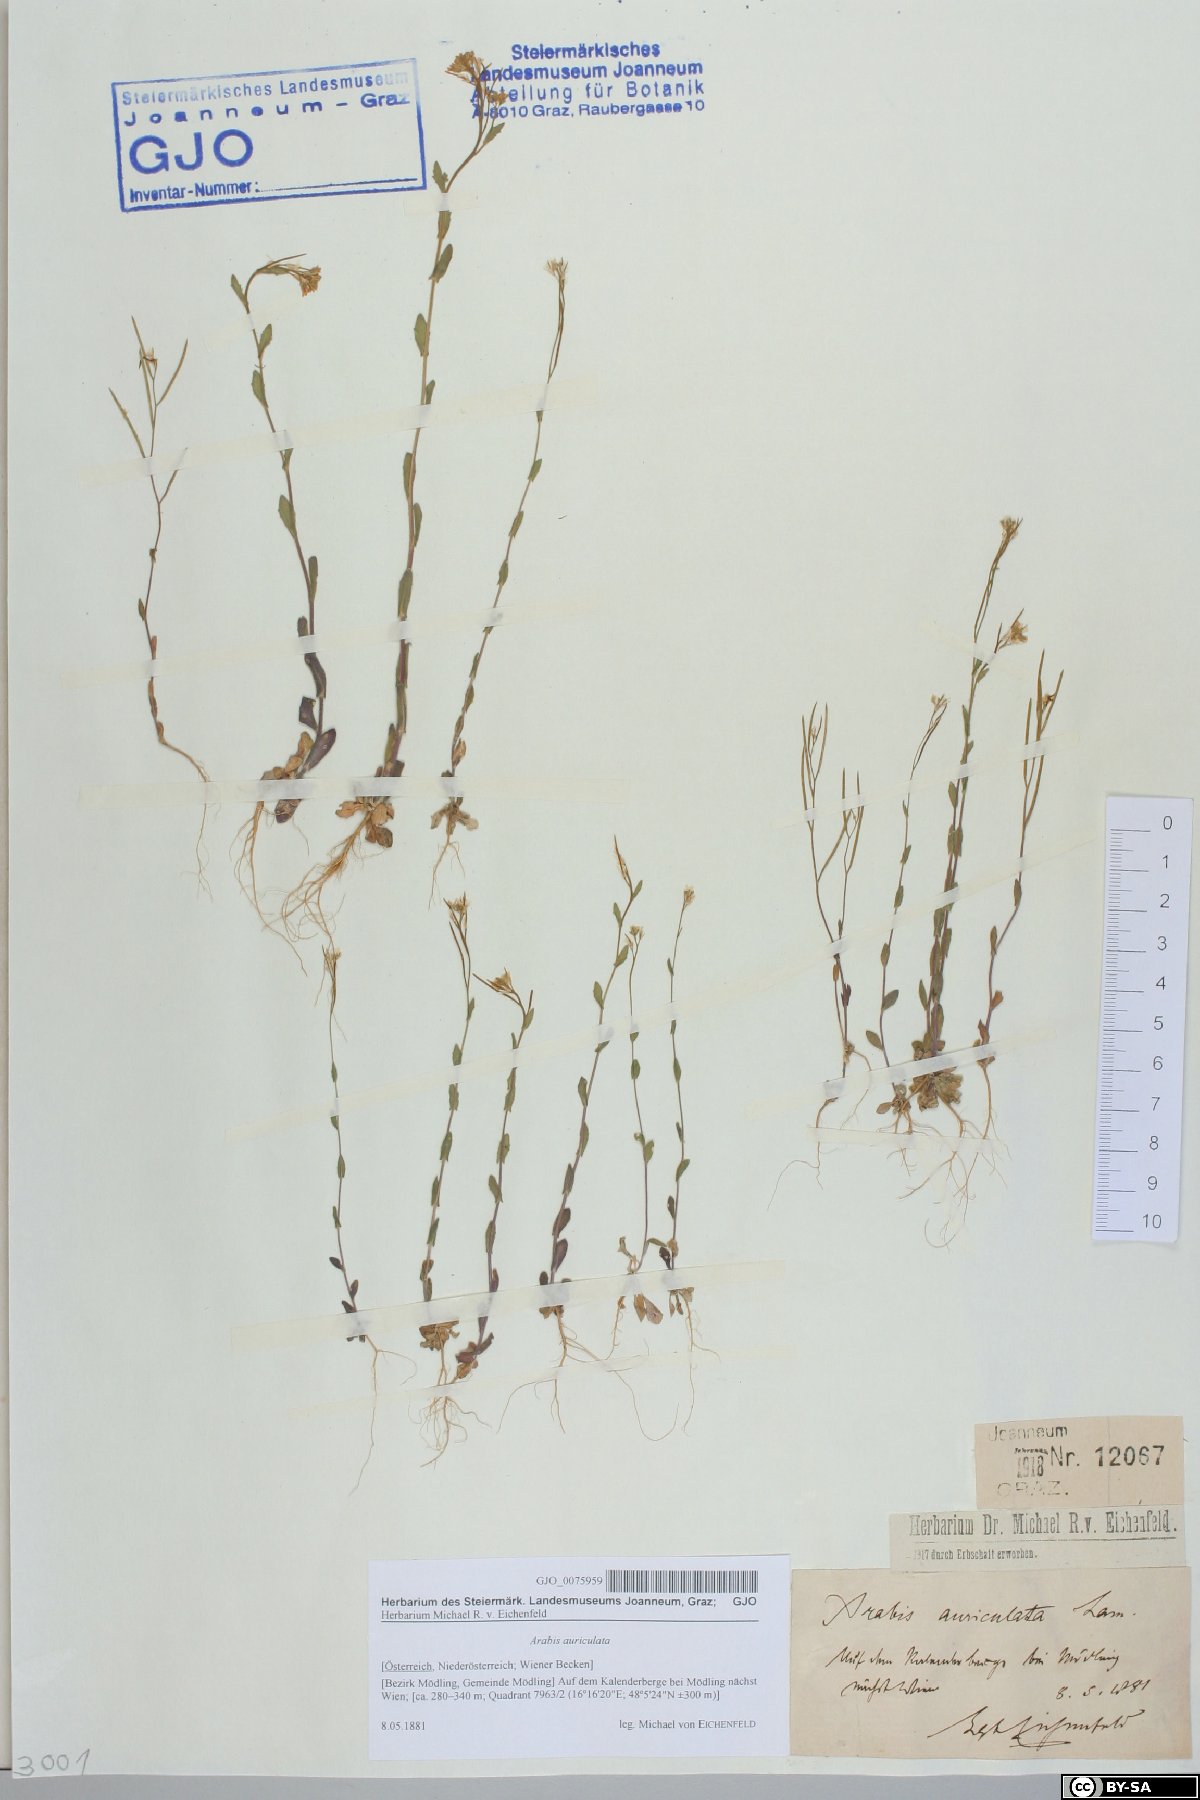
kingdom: Plantae
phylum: Tracheophyta
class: Magnoliopsida
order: Brassicales
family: Brassicaceae
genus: Arabis
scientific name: Arabis auriculata
